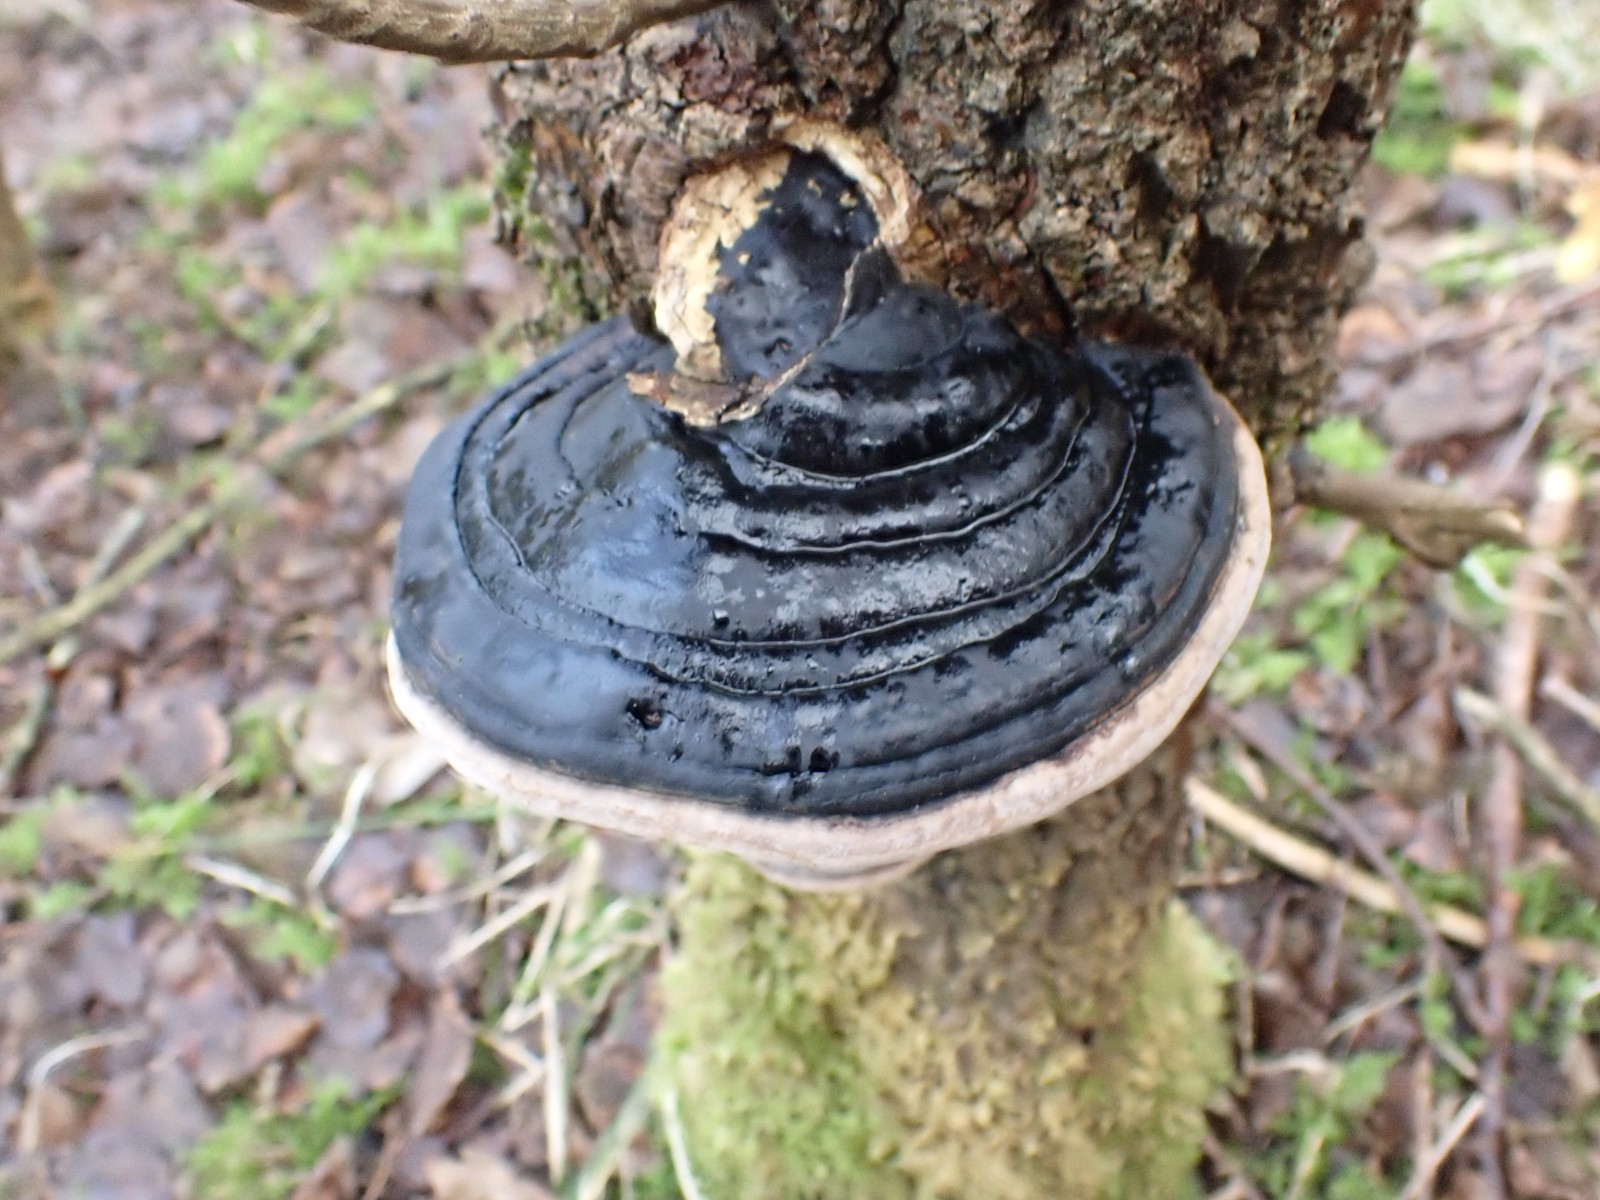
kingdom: Fungi
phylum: Basidiomycota
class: Agaricomycetes
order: Hymenochaetales
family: Hymenochaetaceae
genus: Phellinus
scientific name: Phellinus populicola
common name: poppel-ildporesvamp
